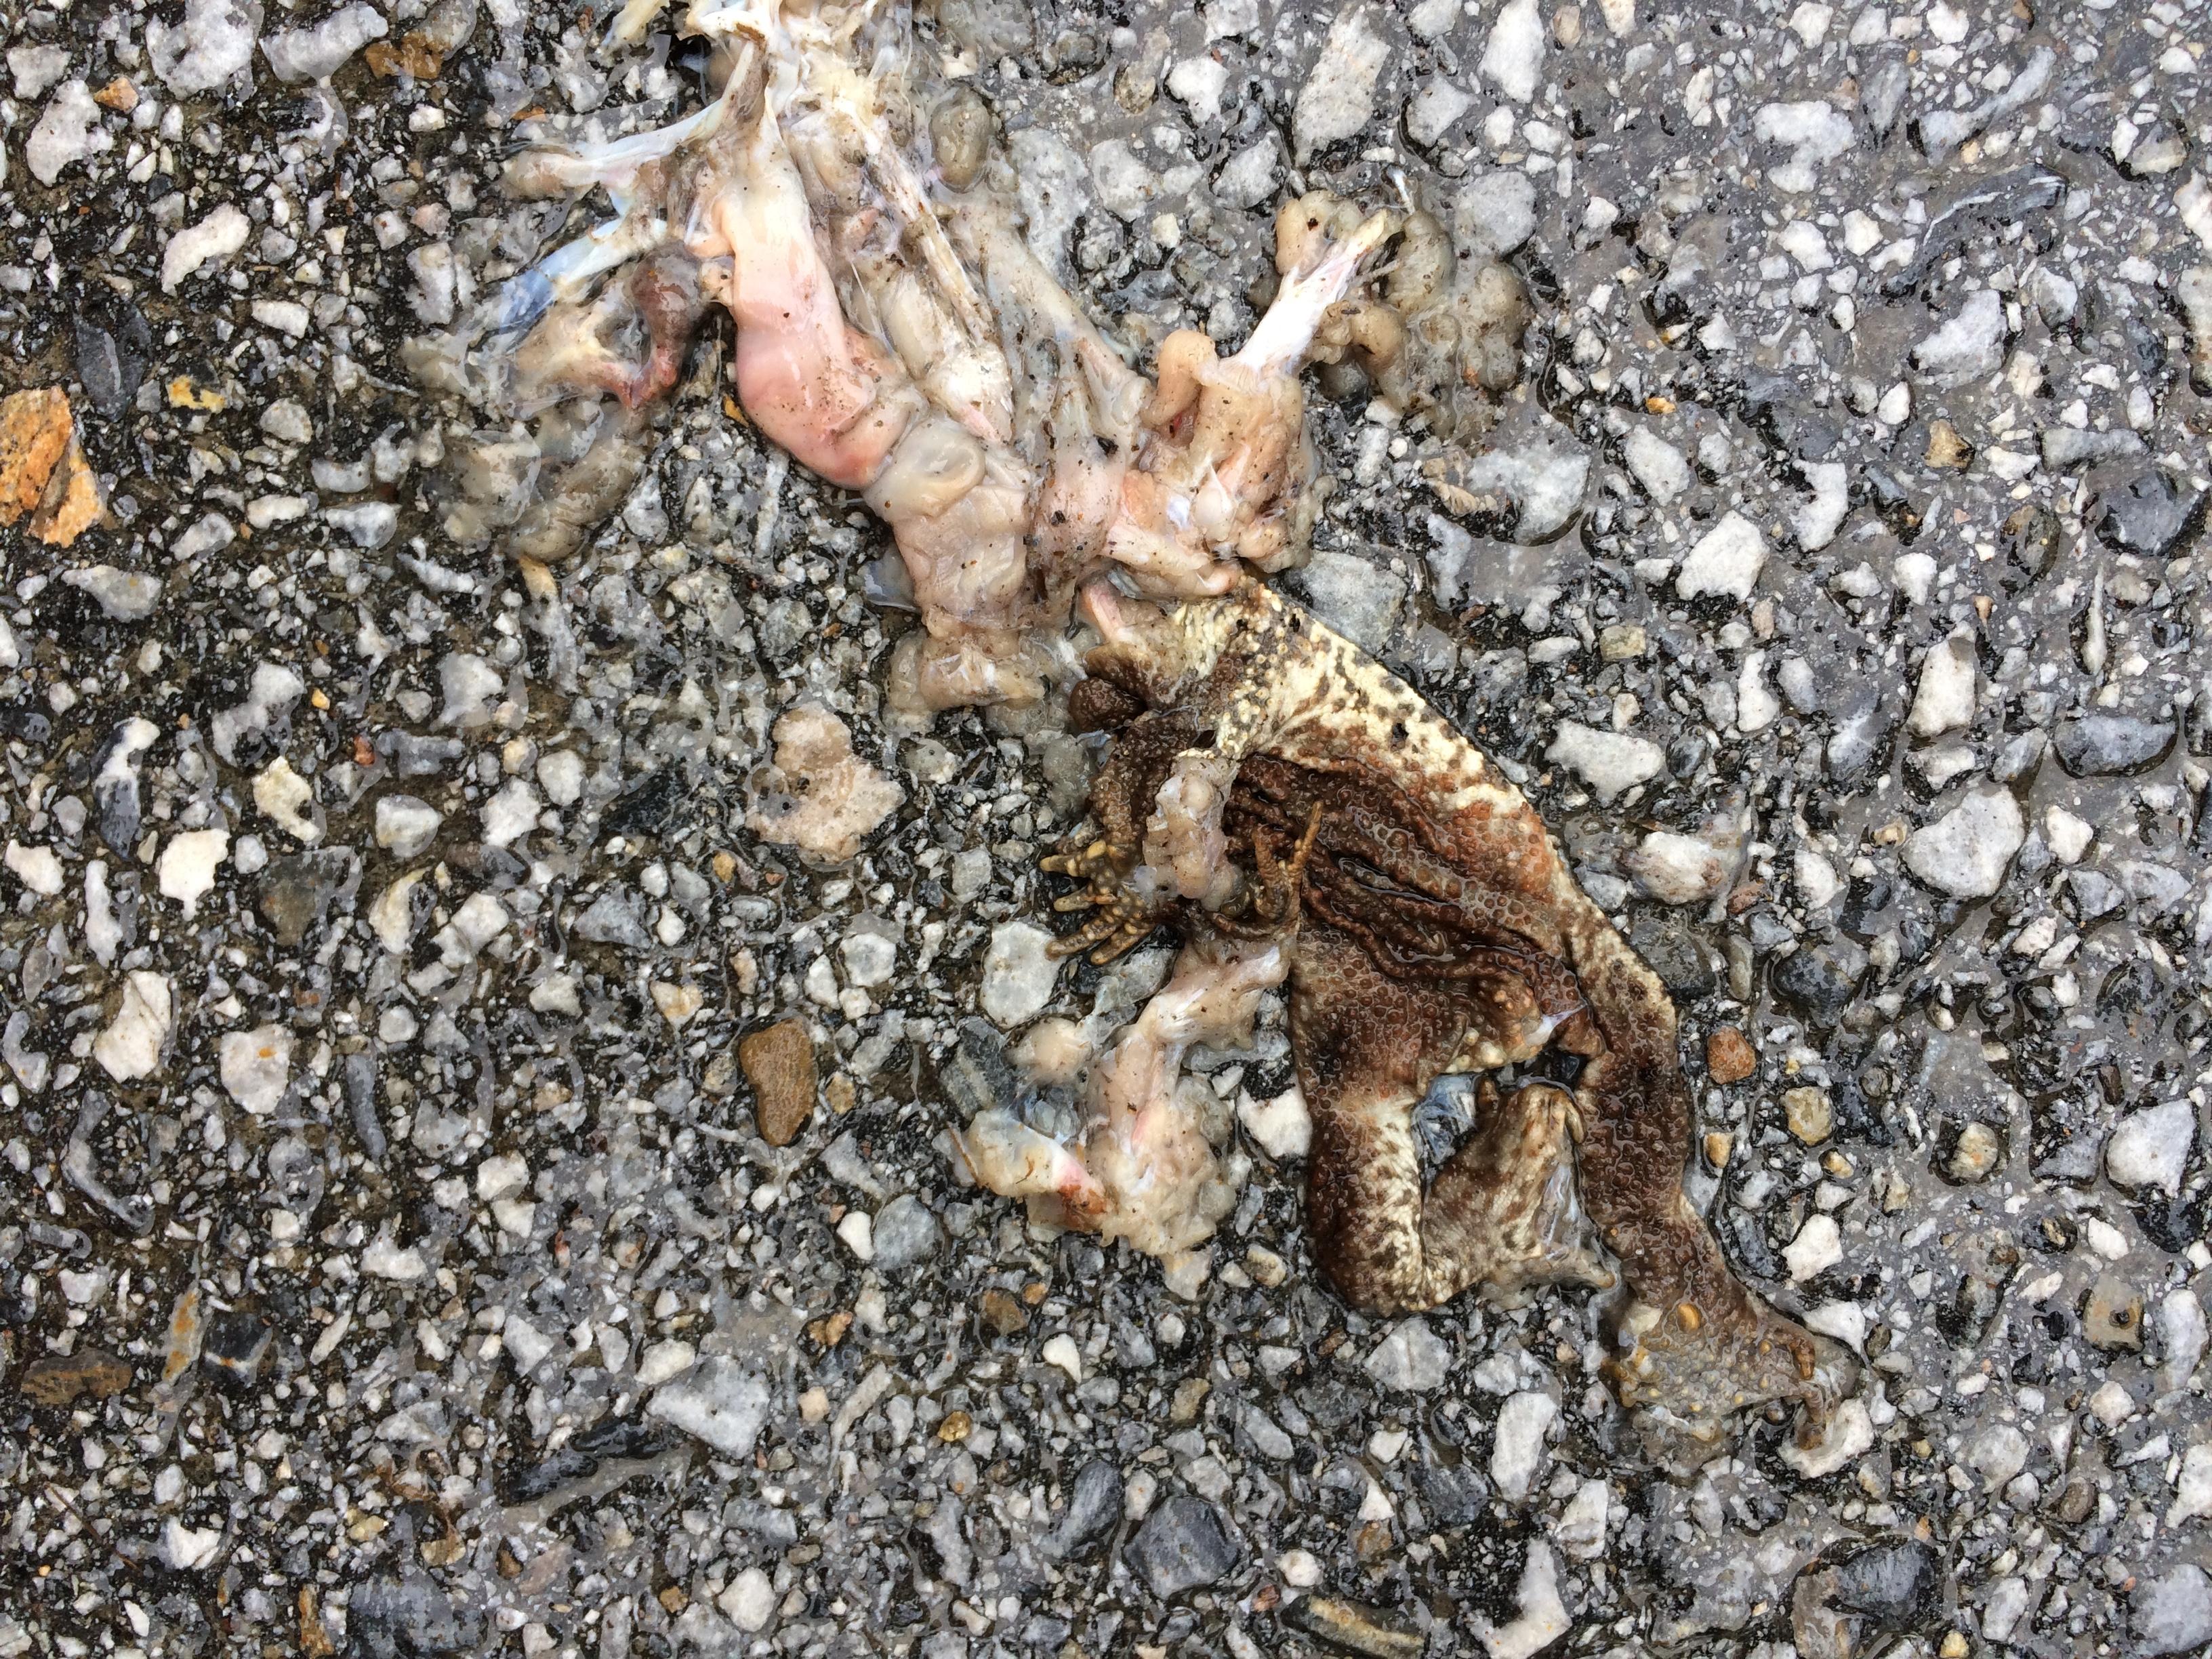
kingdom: Animalia
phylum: Chordata
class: Amphibia
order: Anura
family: Bufonidae
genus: Bufo
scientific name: Bufo bufo
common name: Common toad
